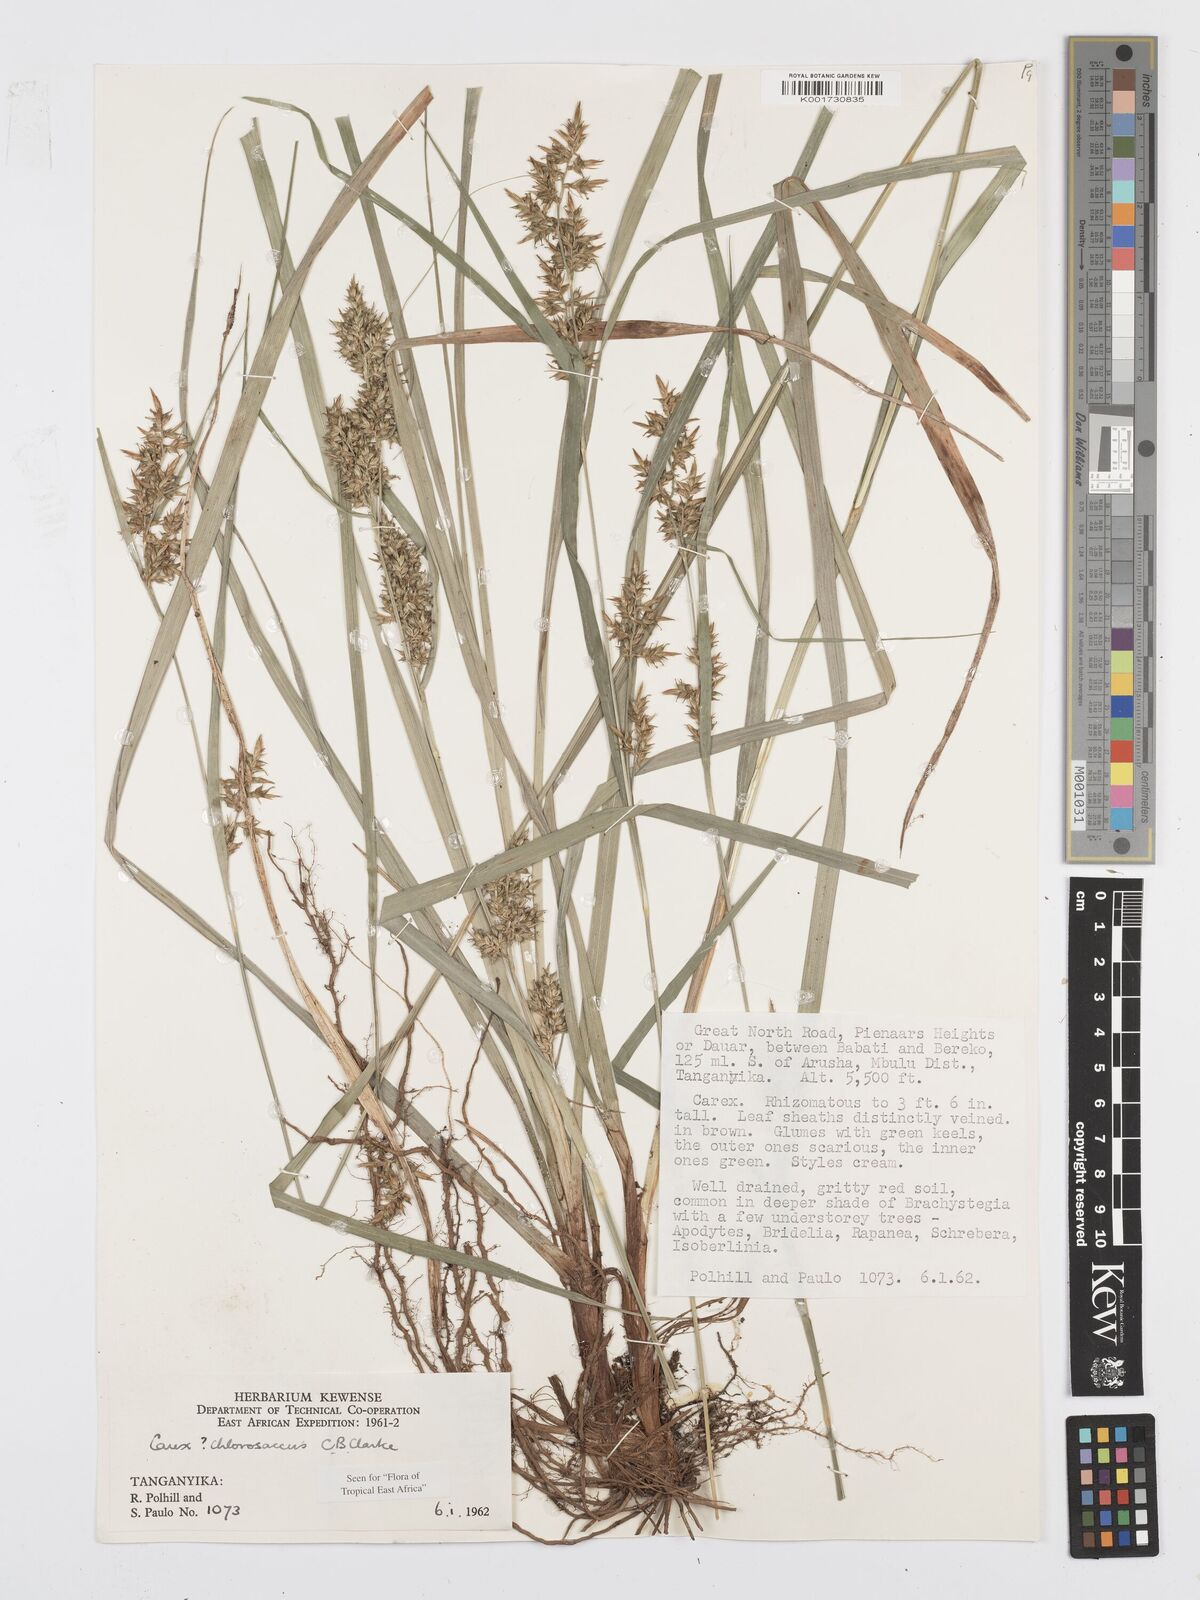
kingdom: Plantae
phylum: Tracheophyta
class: Liliopsida
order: Poales
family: Cyperaceae
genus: Carex
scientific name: Carex chlorosaccus
